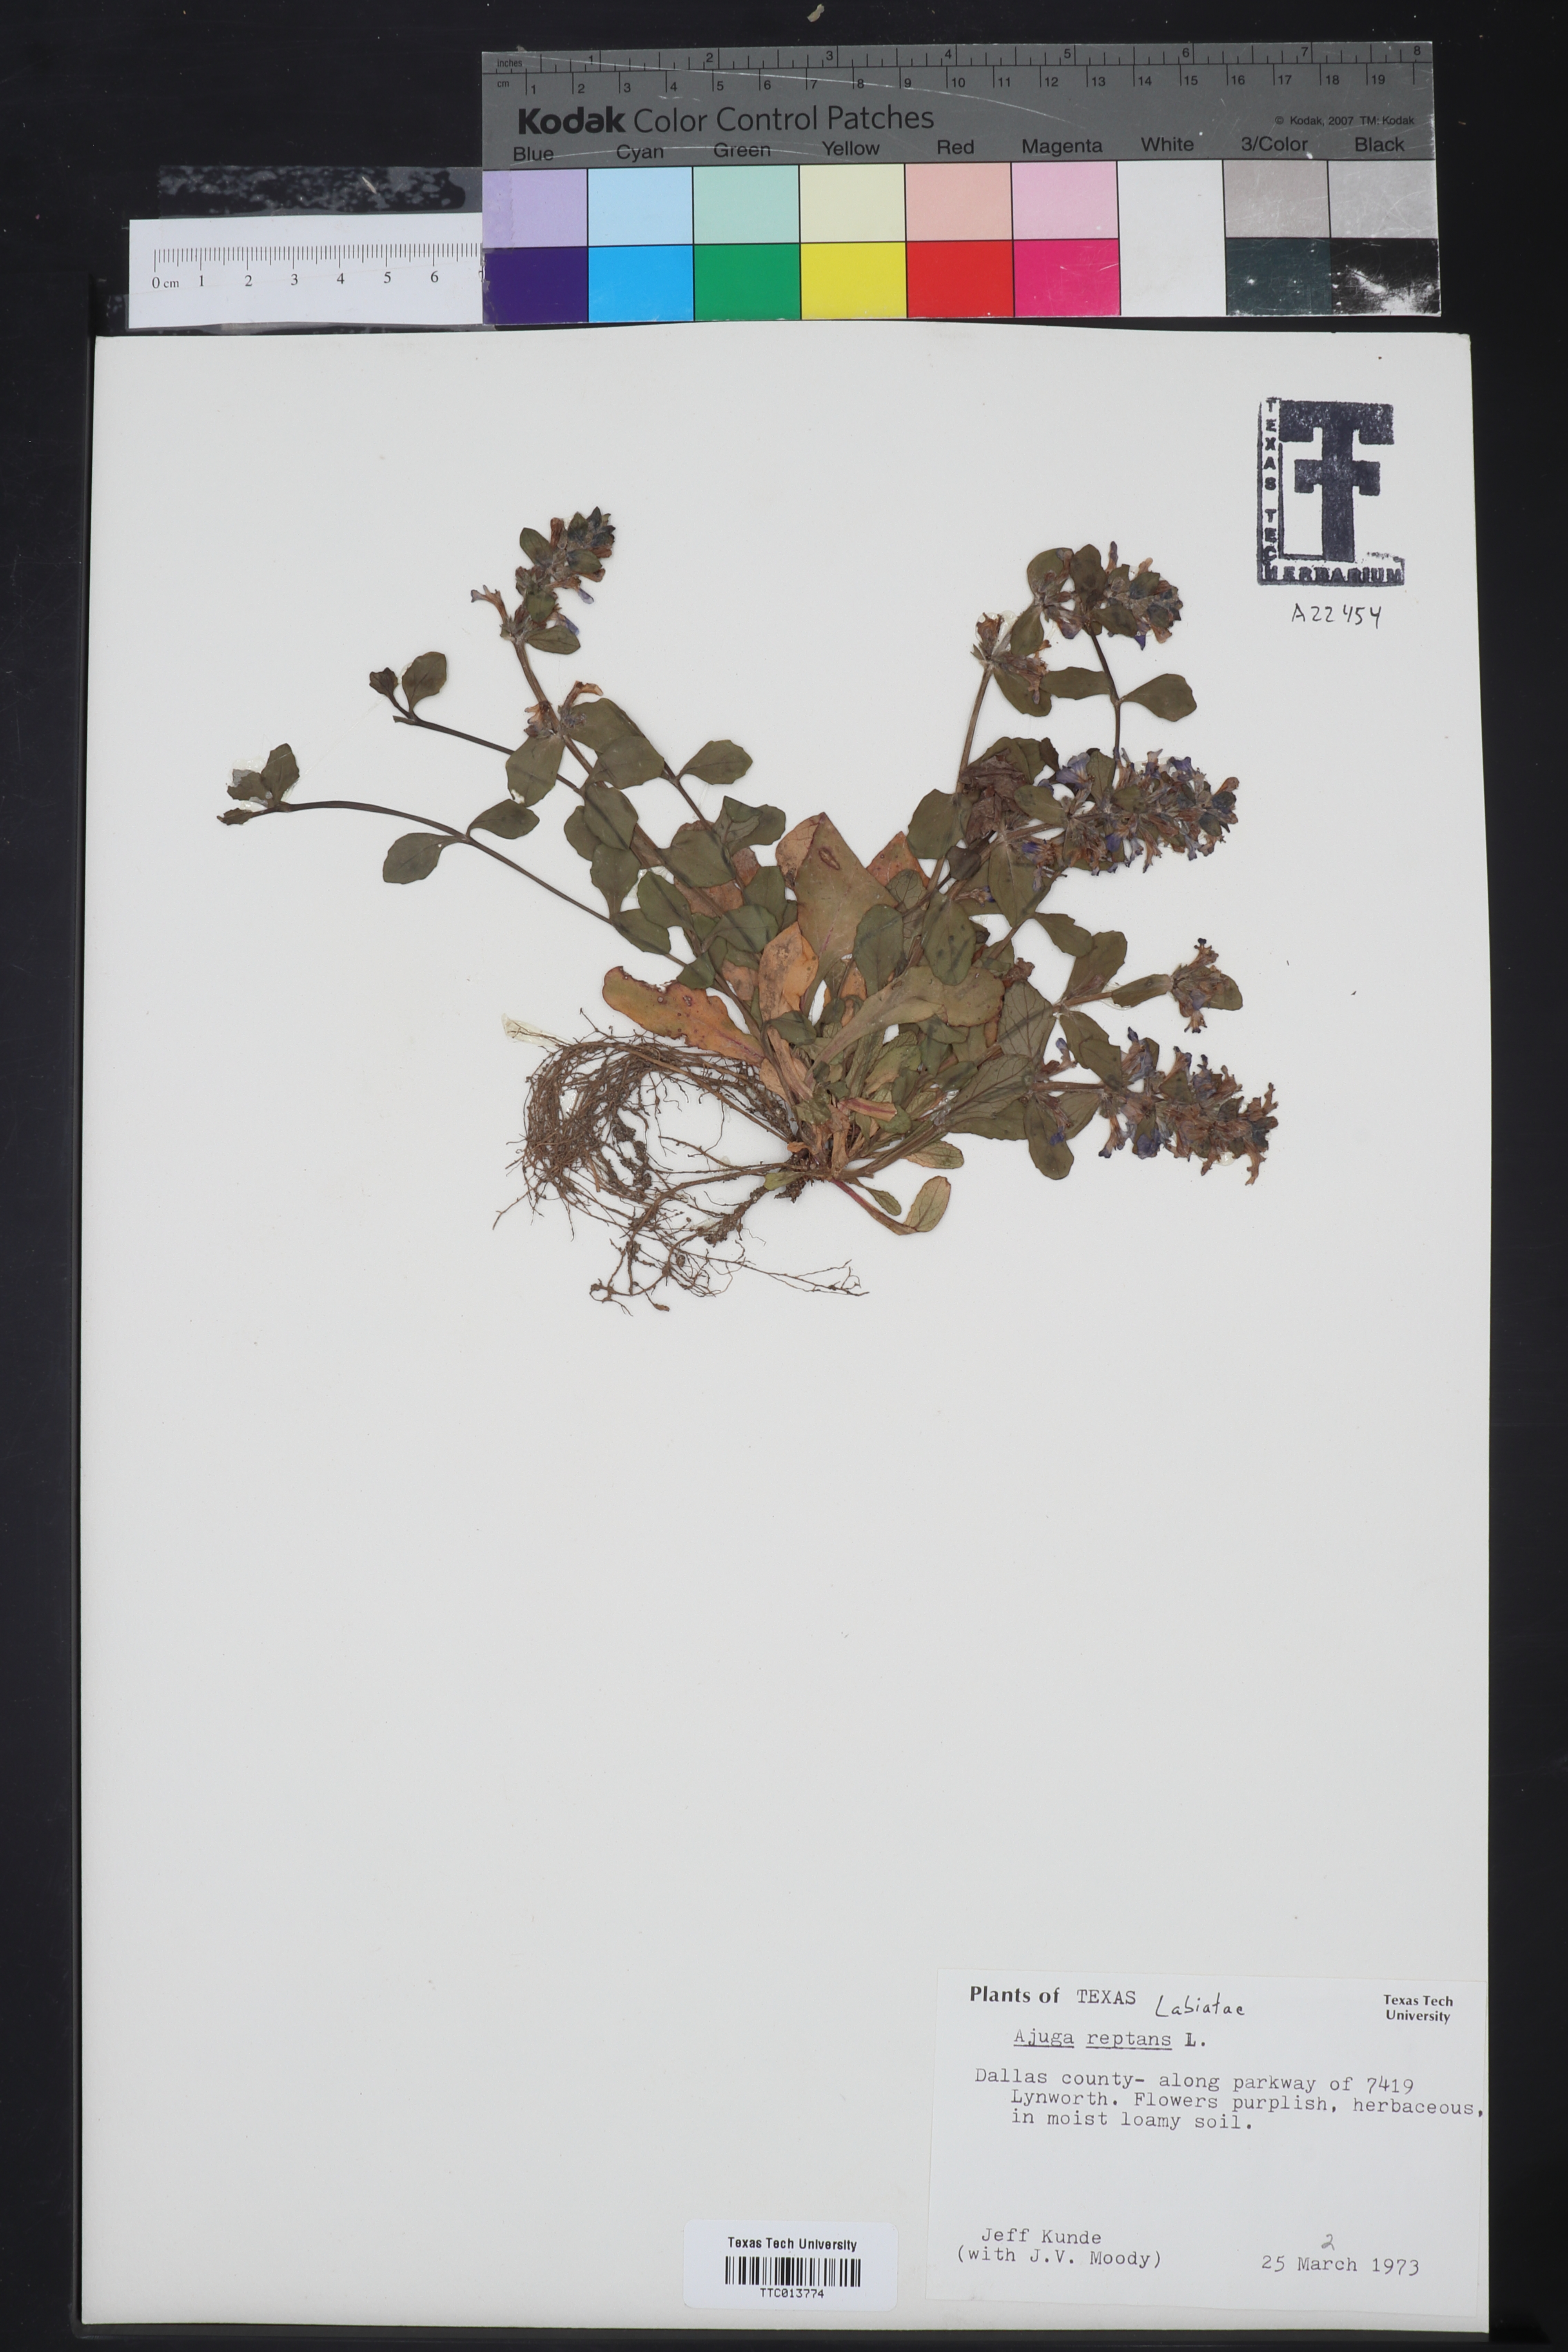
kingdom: Plantae
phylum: Tracheophyta
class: Magnoliopsida
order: Lamiales
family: Lamiaceae
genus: Ajuga
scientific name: Ajuga reptans
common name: Bugle
